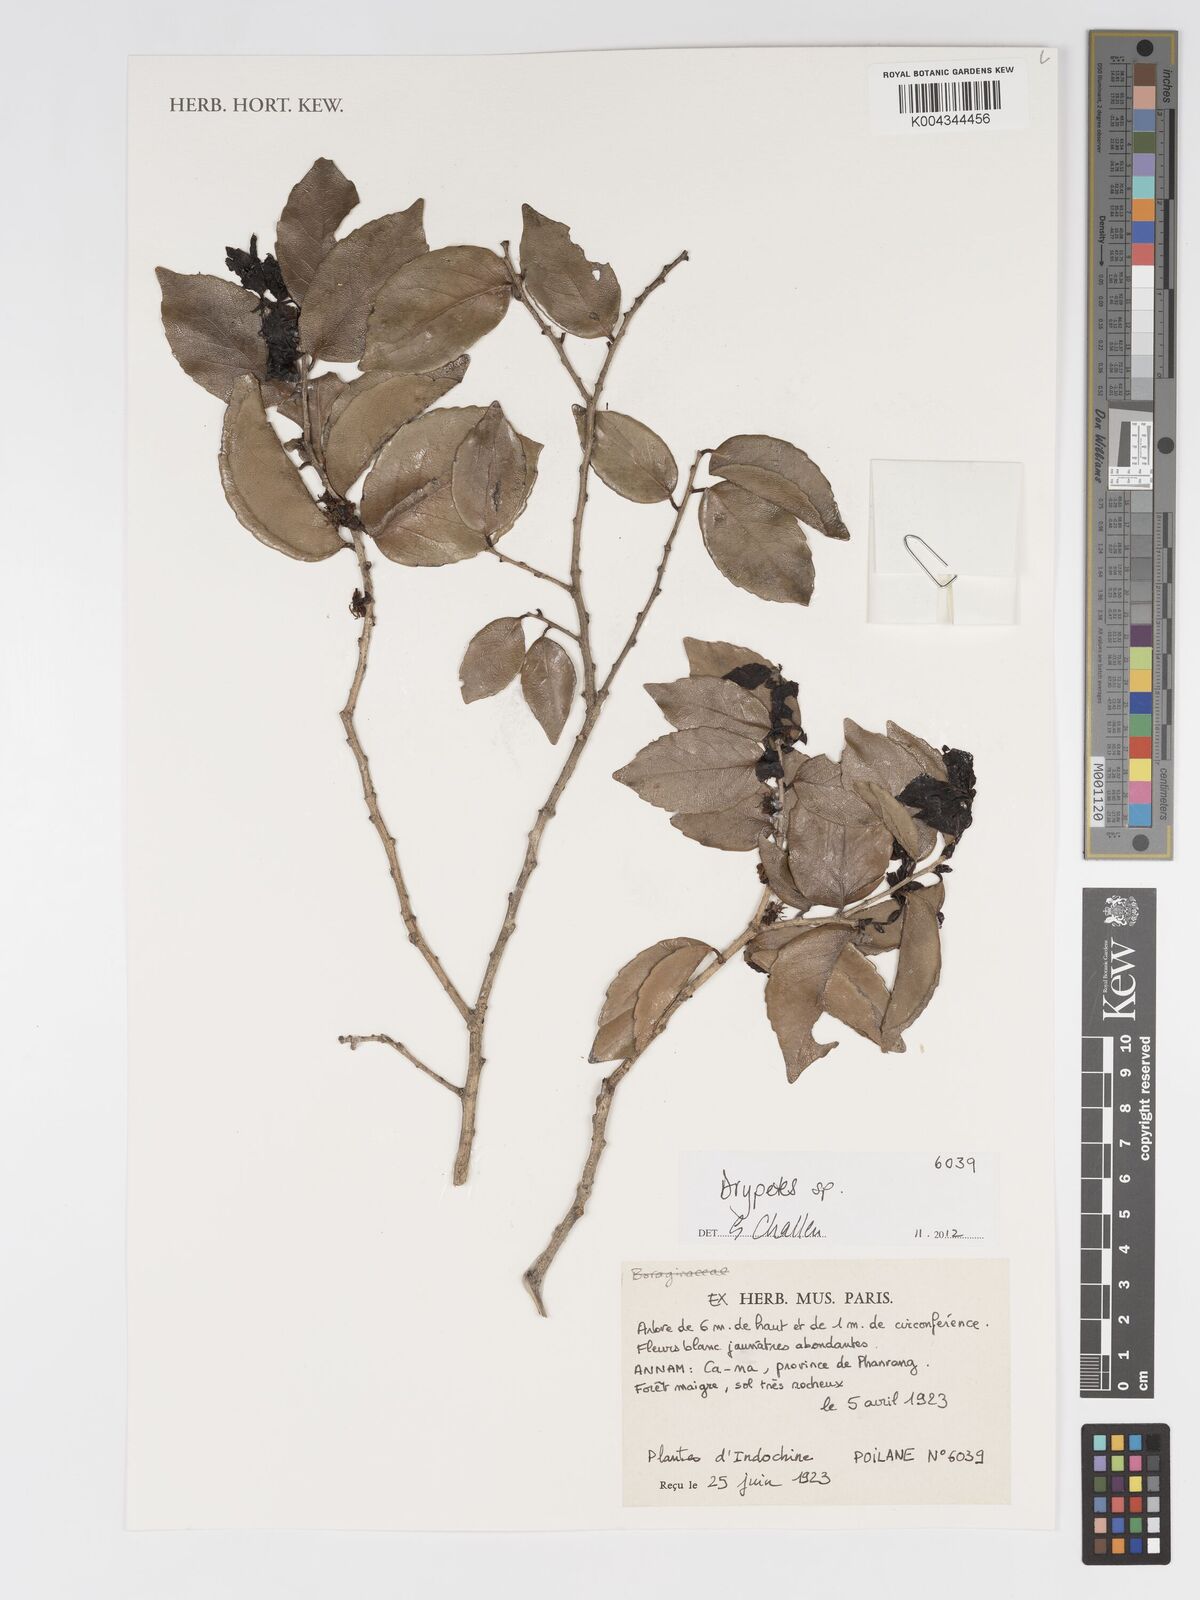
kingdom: Plantae
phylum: Tracheophyta
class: Magnoliopsida
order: Malpighiales
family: Putranjivaceae
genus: Drypetes
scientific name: Drypetes
